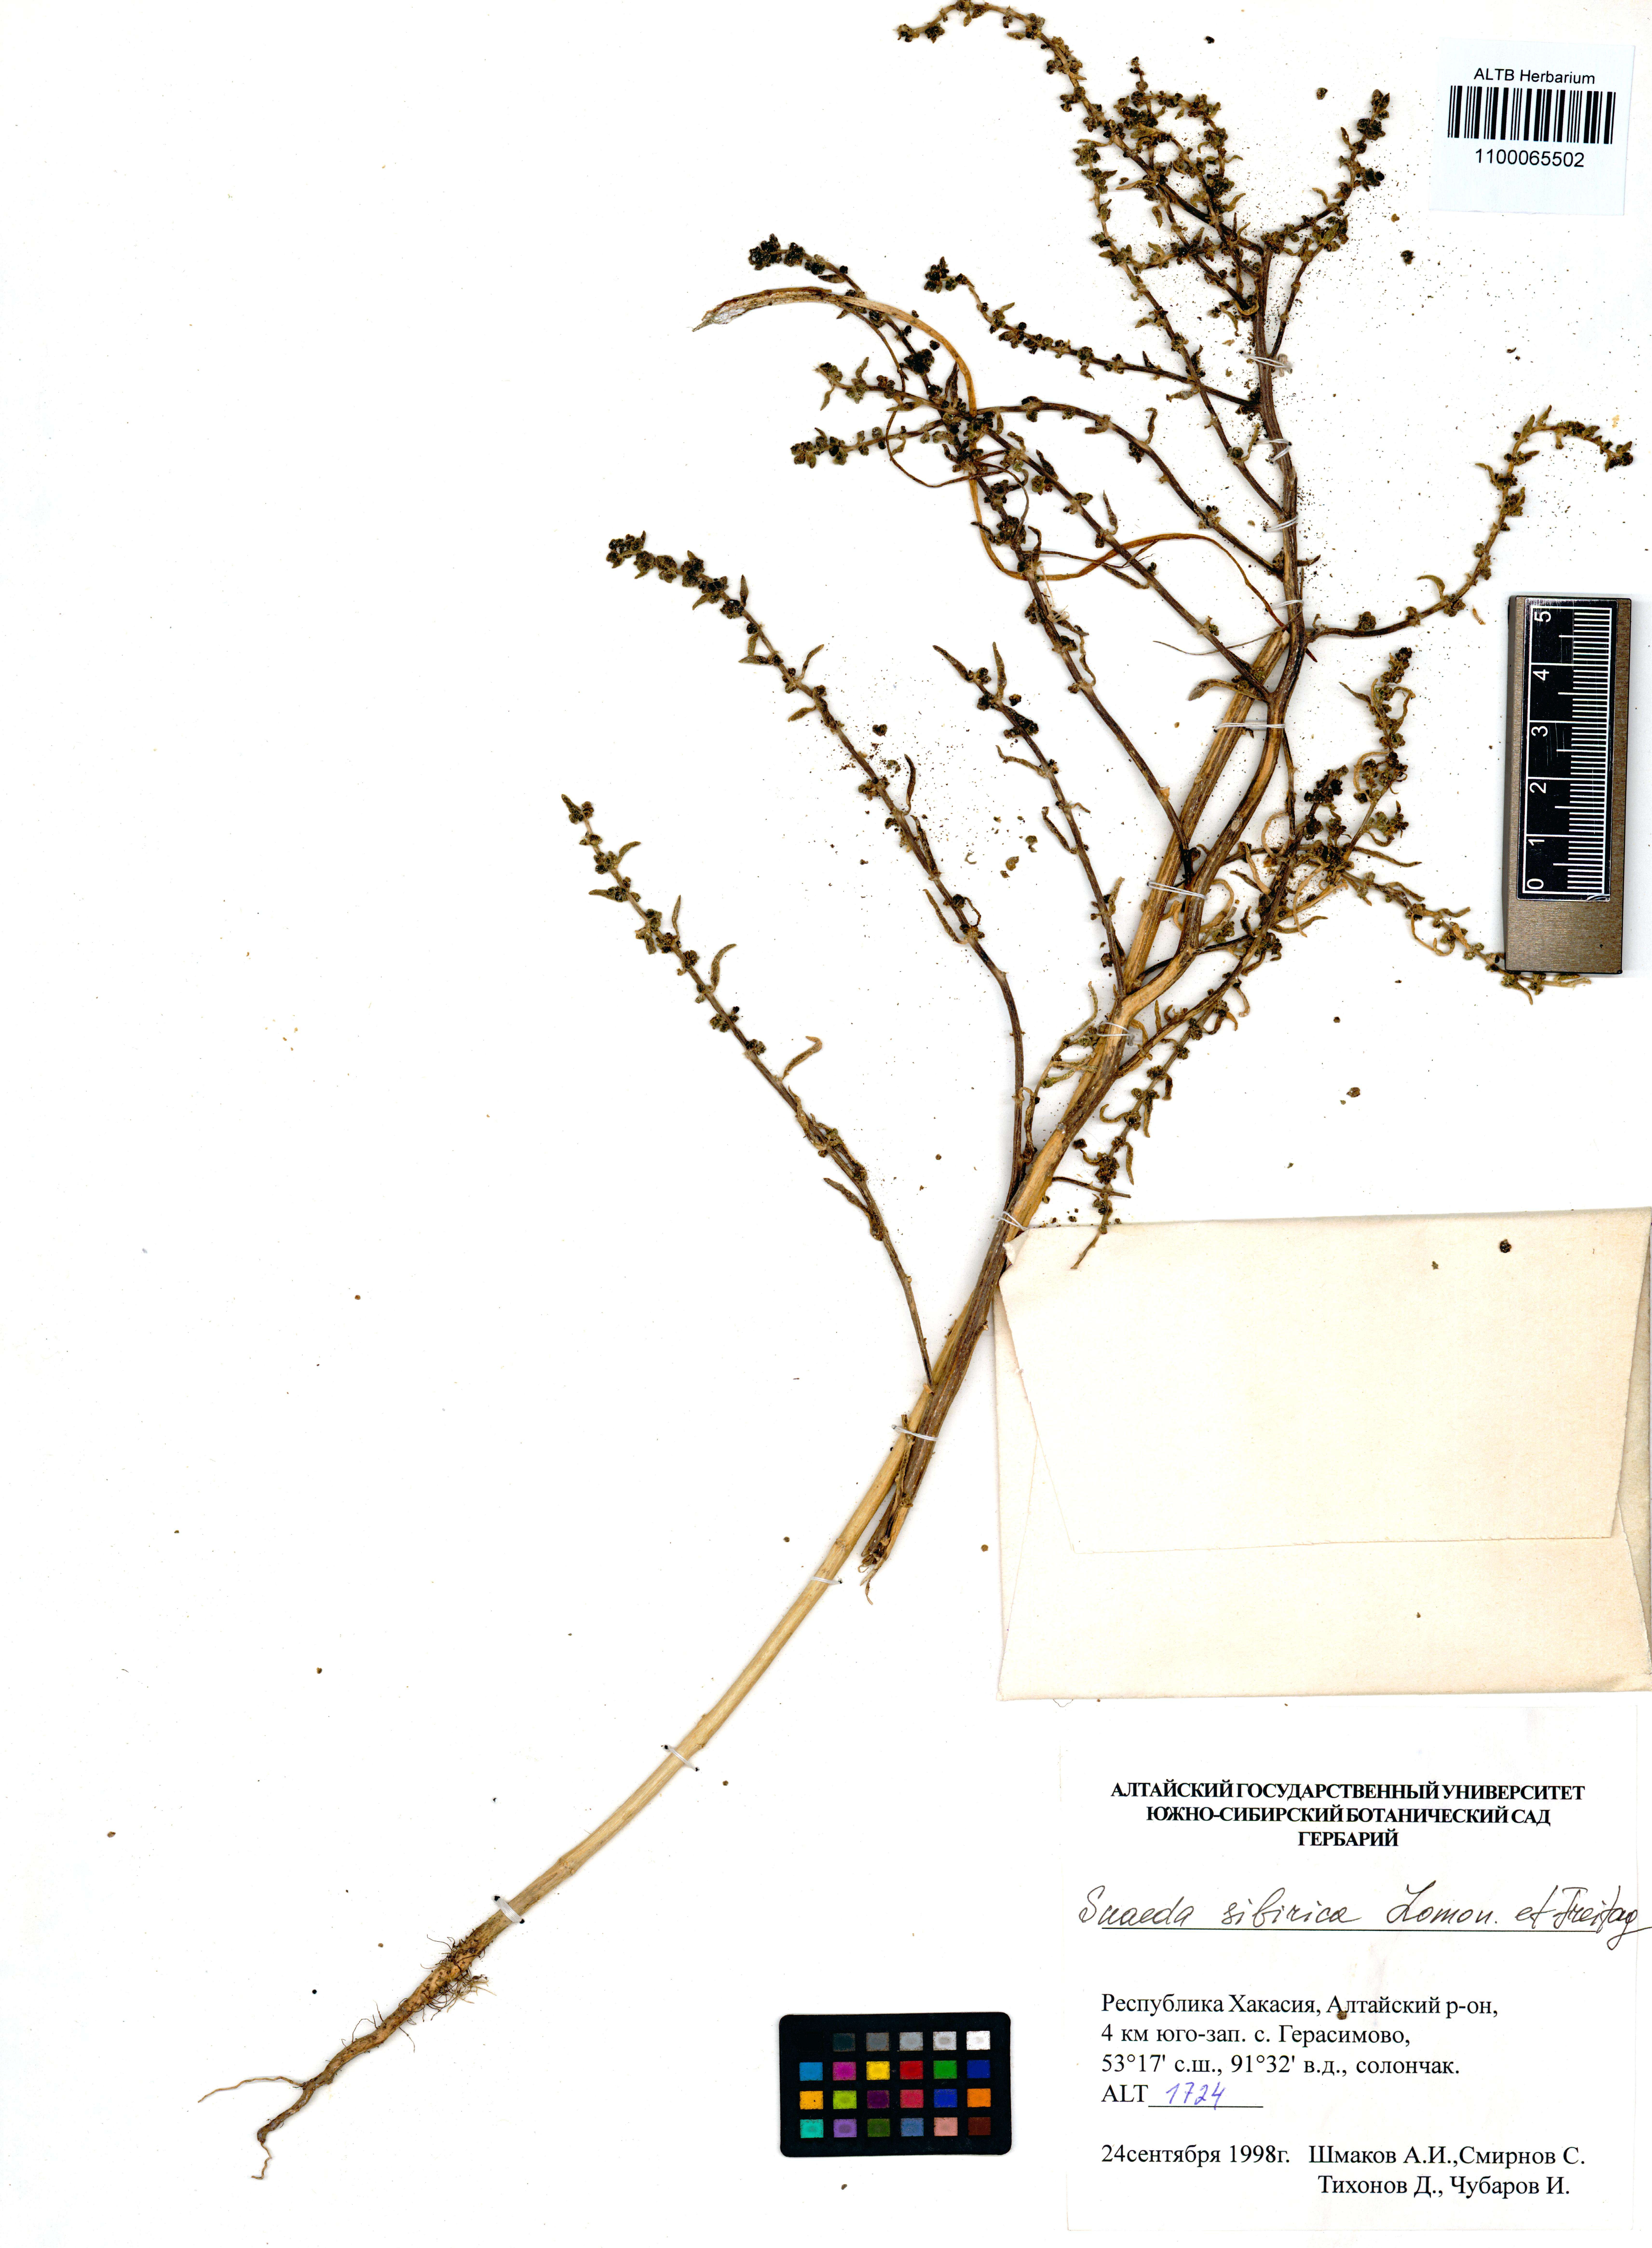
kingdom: Plantae
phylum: Tracheophyta
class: Magnoliopsida
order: Caryophyllales
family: Amaranthaceae
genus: Suaeda
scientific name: Suaeda sibirica
